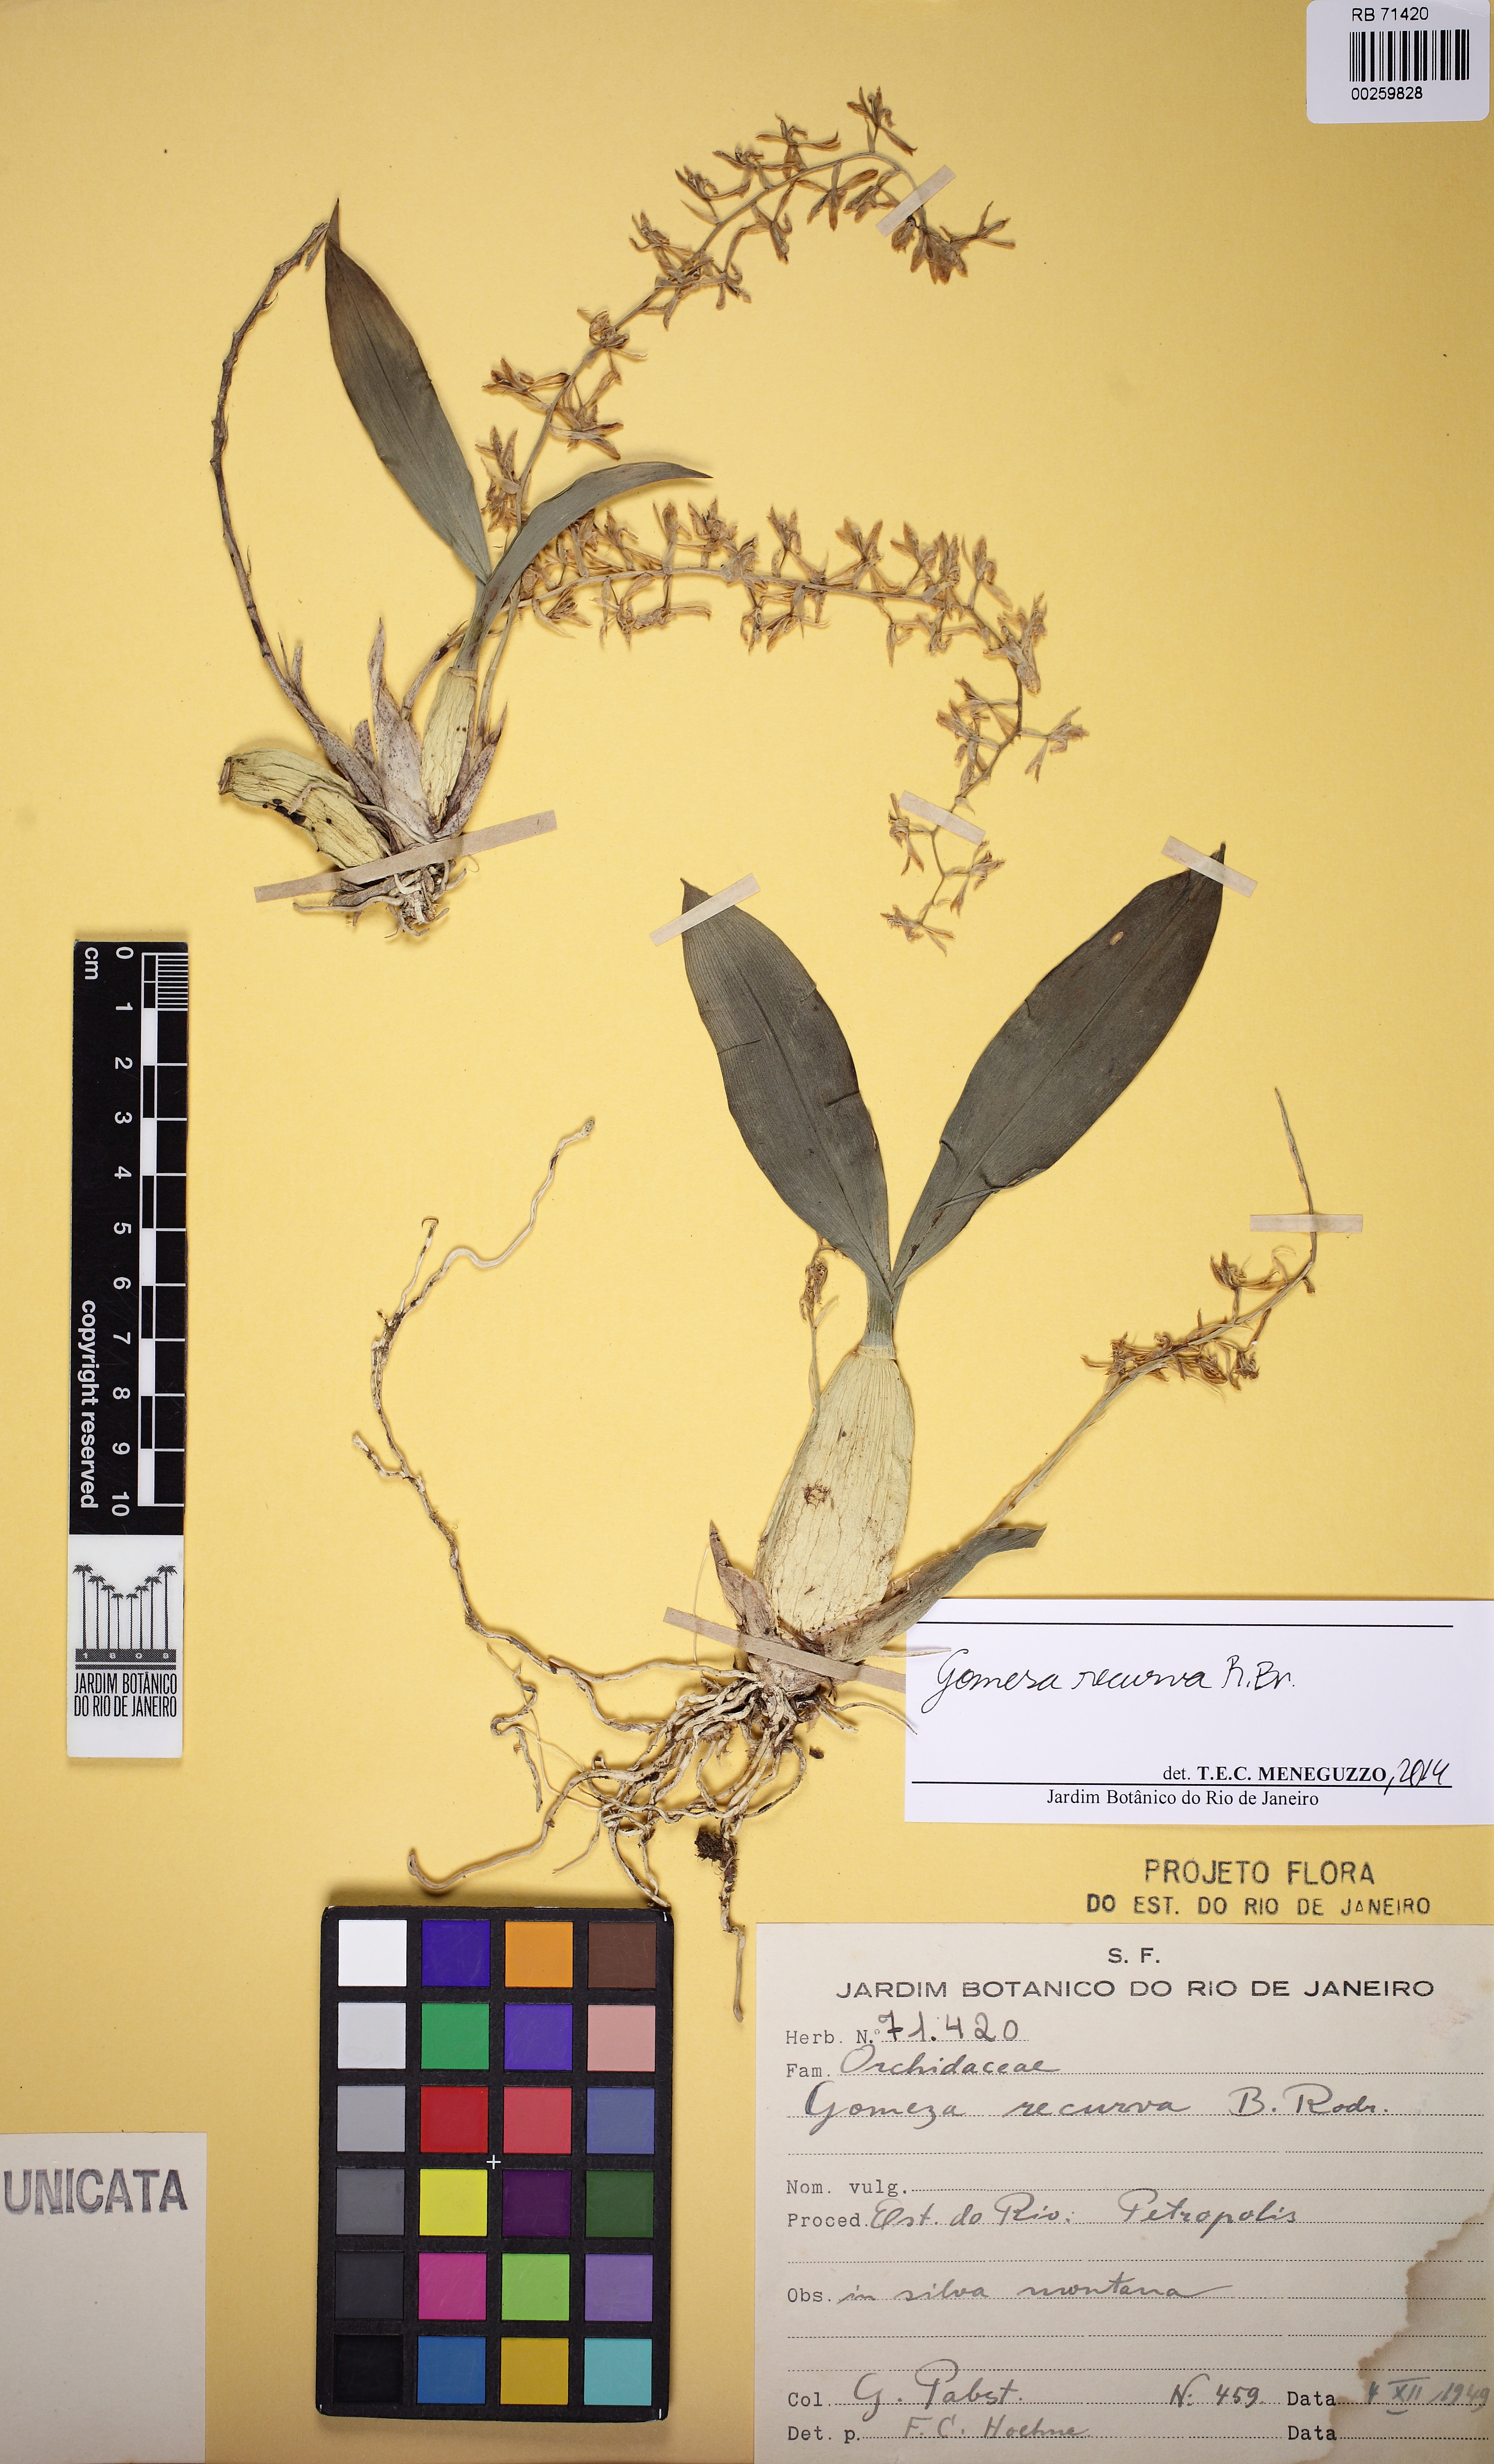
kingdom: Plantae
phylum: Tracheophyta
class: Liliopsida
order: Asparagales
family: Orchidaceae
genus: Gomesa
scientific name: Gomesa recurva
